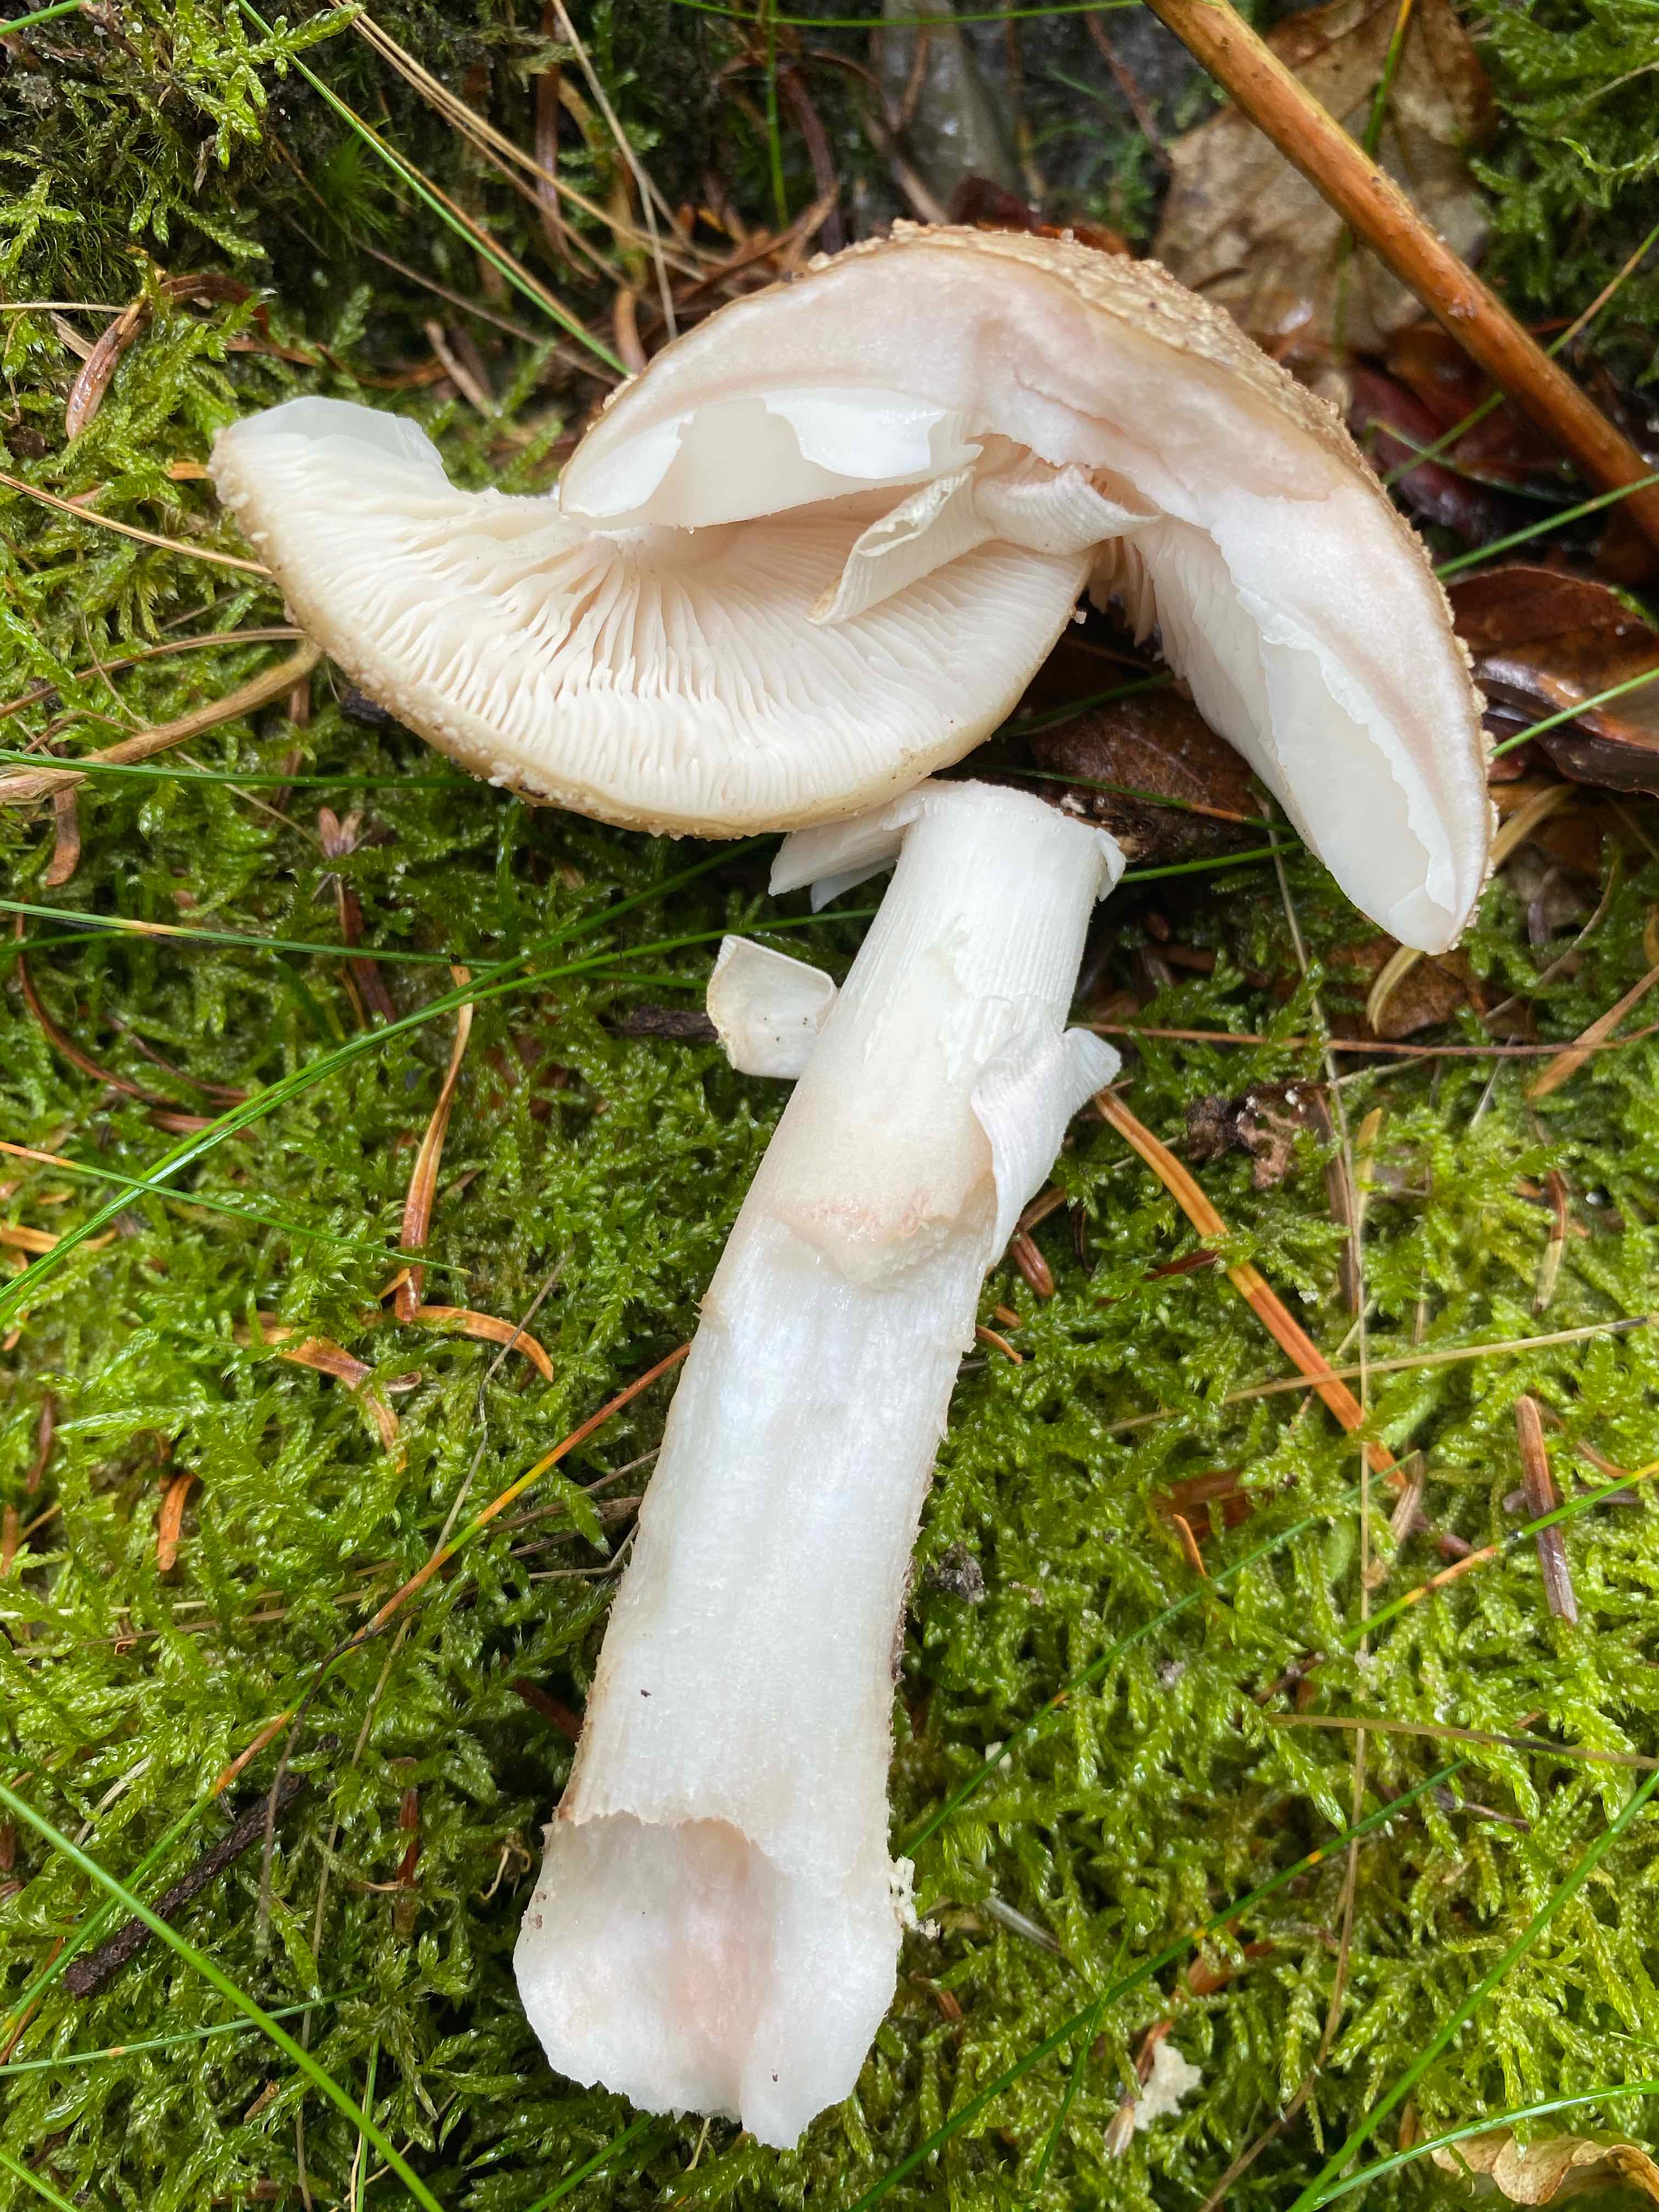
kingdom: Fungi
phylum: Basidiomycota
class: Agaricomycetes
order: Agaricales
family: Amanitaceae
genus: Amanita
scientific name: Amanita rubescens
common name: rødmende fluesvamp
